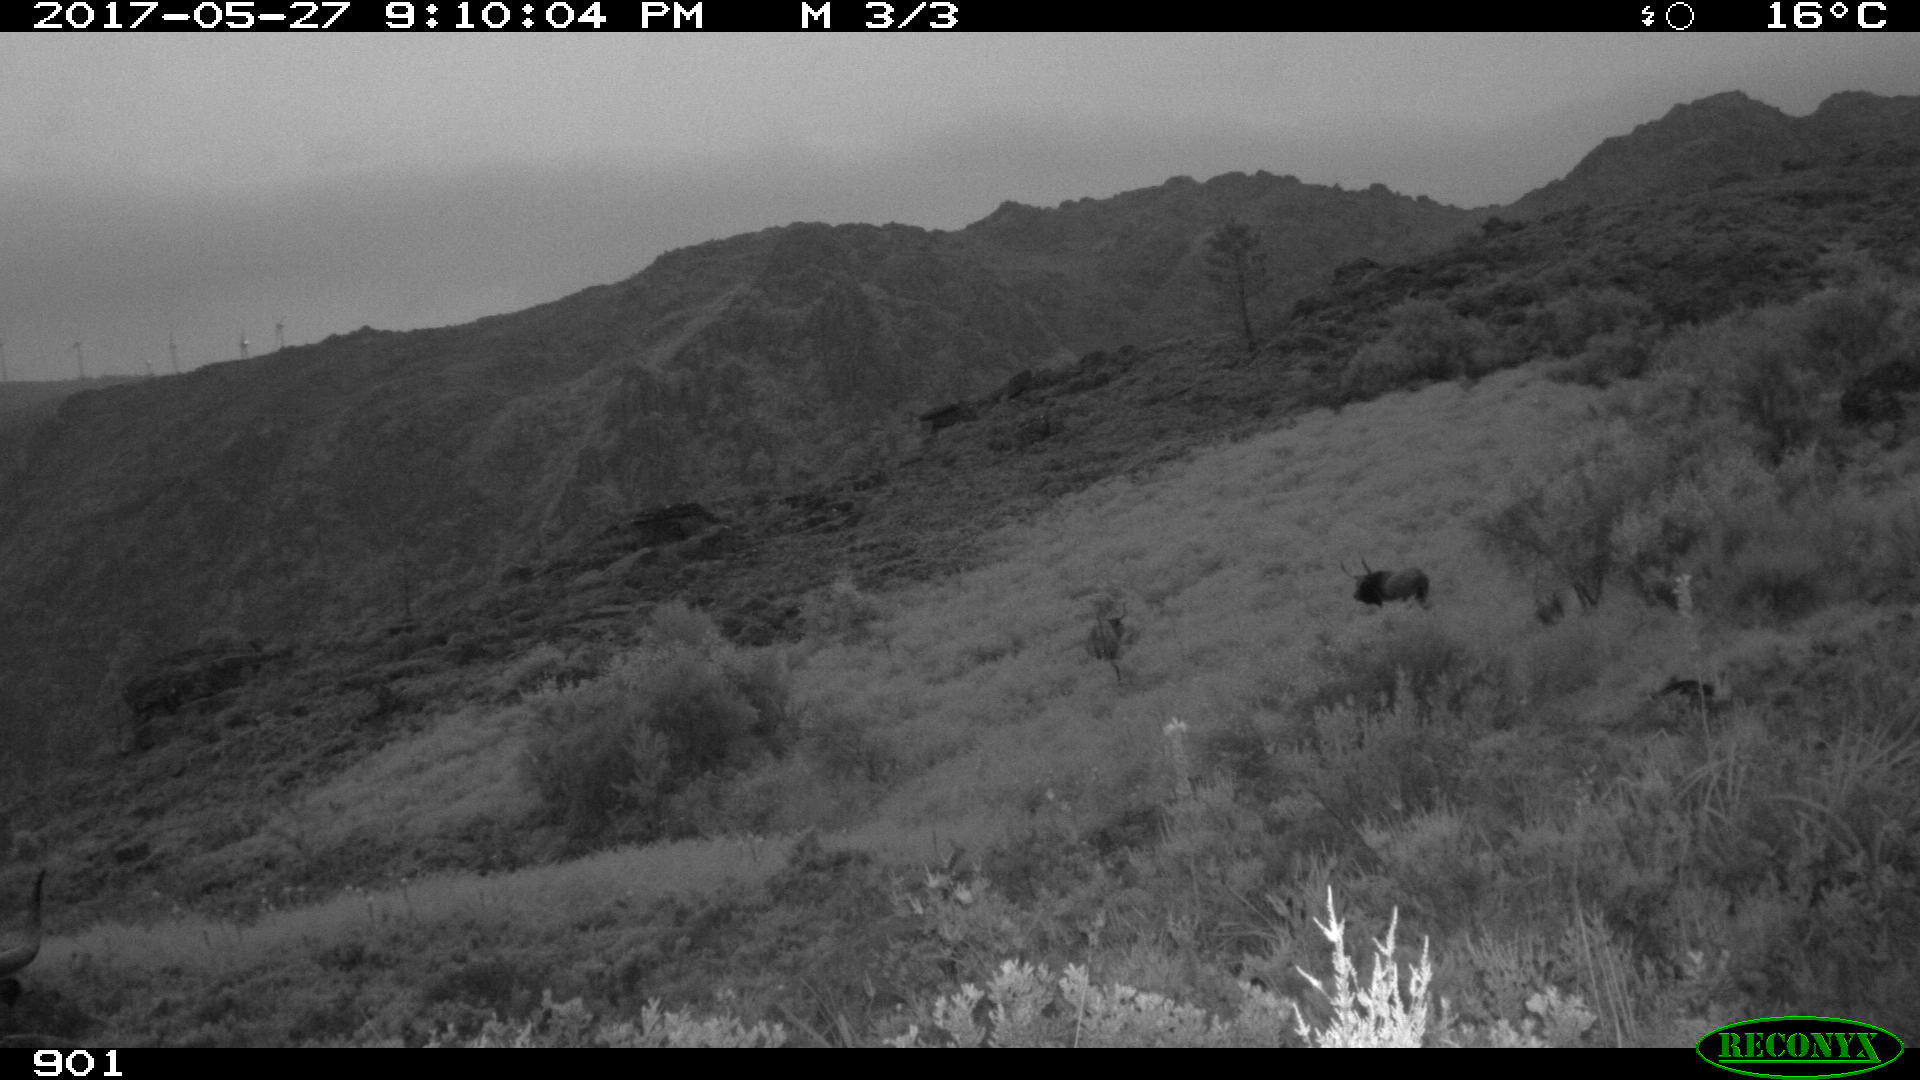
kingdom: Animalia
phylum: Chordata
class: Mammalia
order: Artiodactyla
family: Bovidae
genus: Bos
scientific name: Bos taurus
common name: Domesticated cattle
